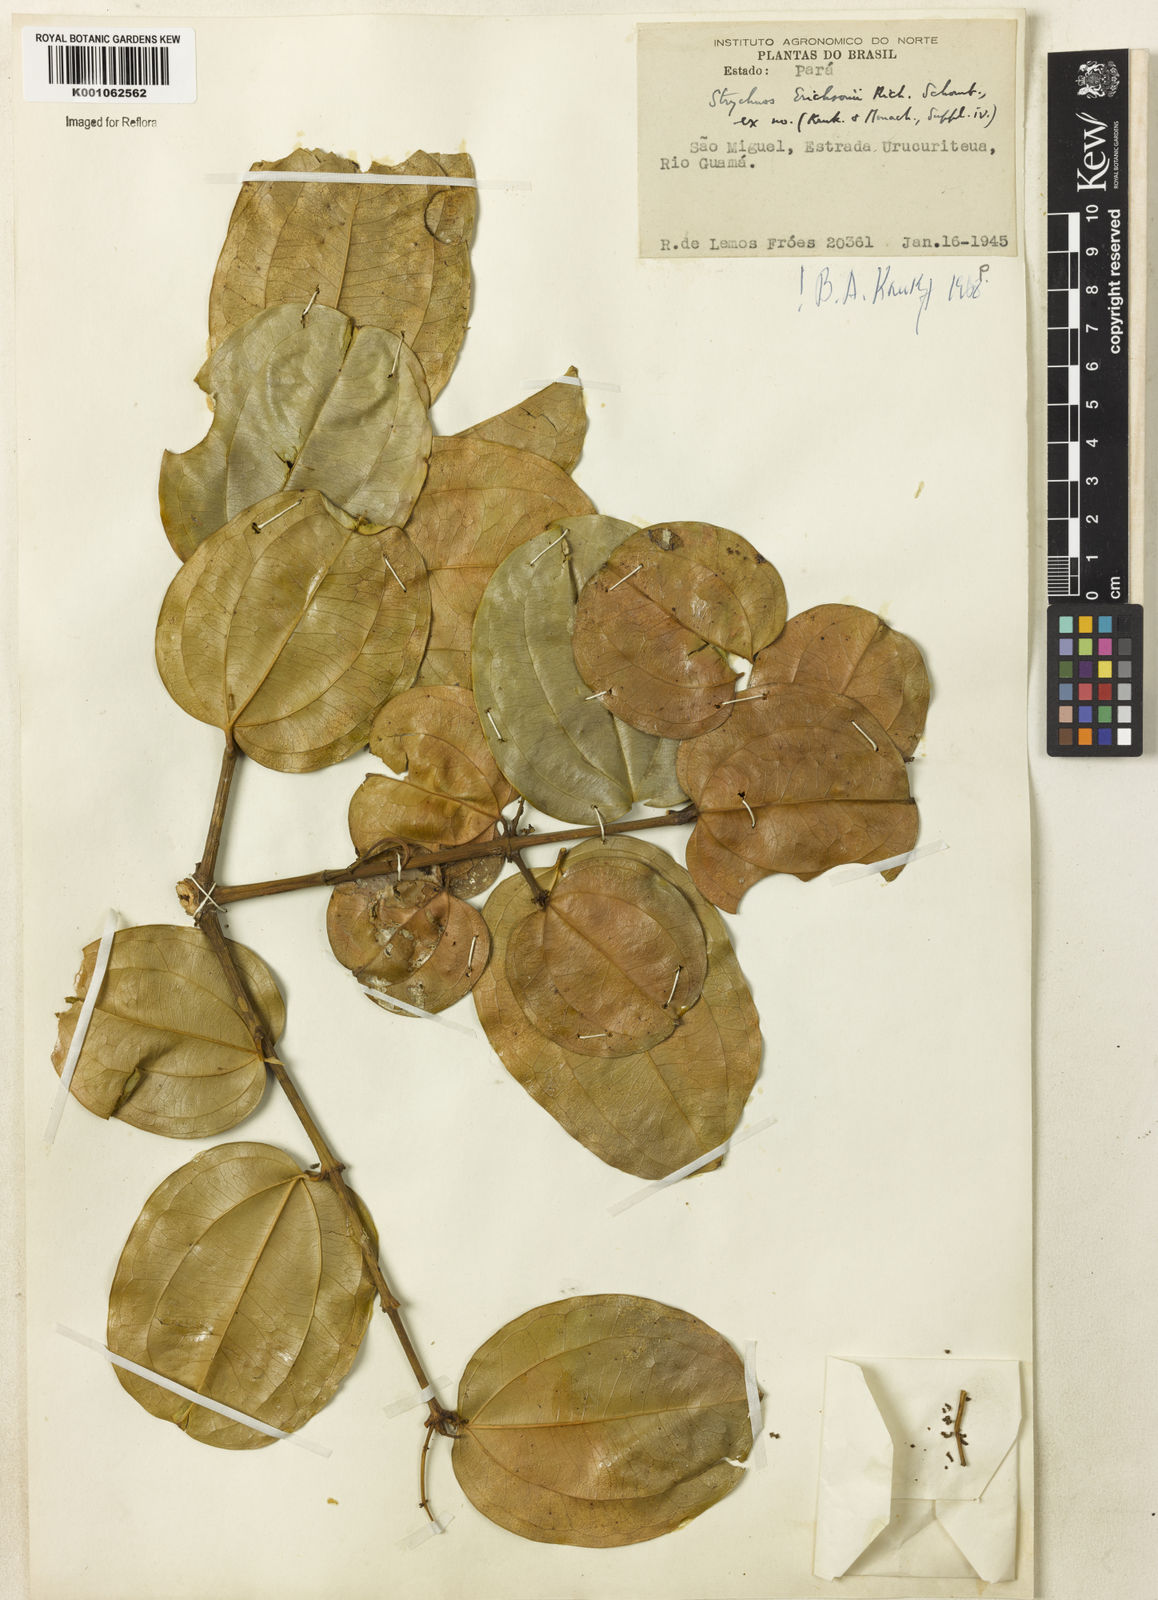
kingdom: Plantae
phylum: Tracheophyta
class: Magnoliopsida
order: Gentianales
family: Loganiaceae
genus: Strychnos
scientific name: Strychnos erichsonii
